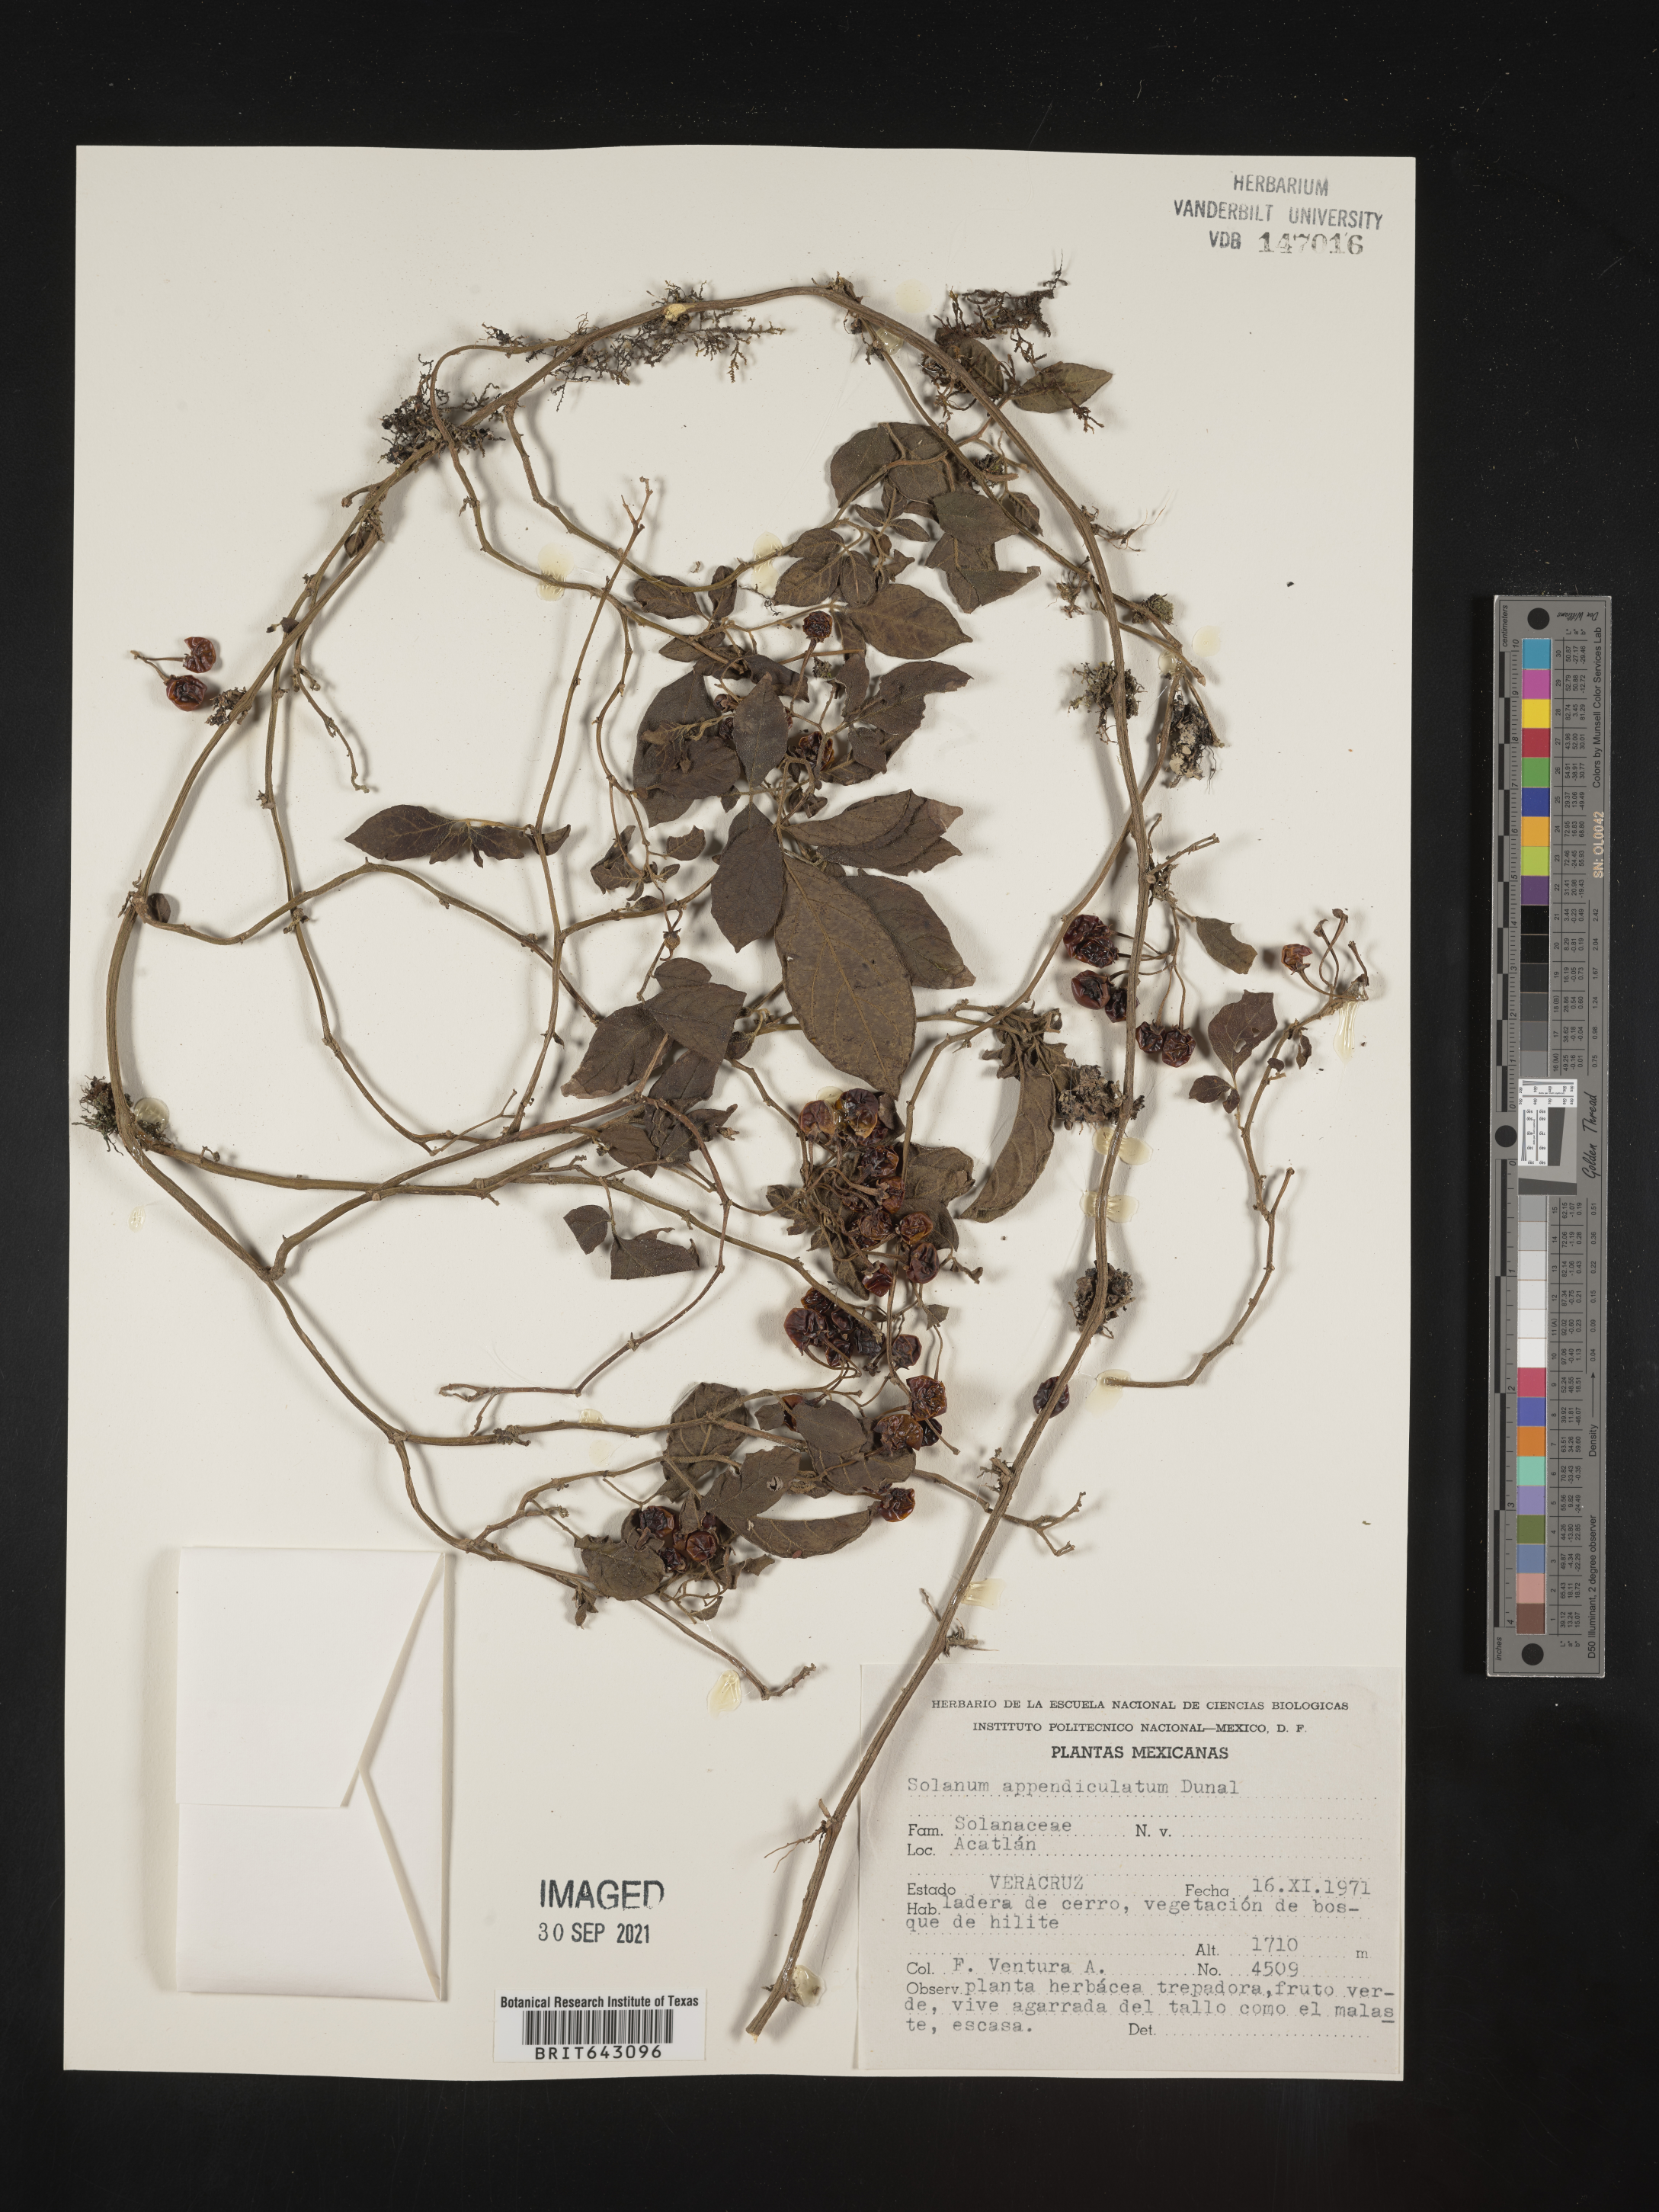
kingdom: Plantae
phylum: Tracheophyta
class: Magnoliopsida
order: Solanales
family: Solanaceae
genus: Solanum
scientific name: Solanum
